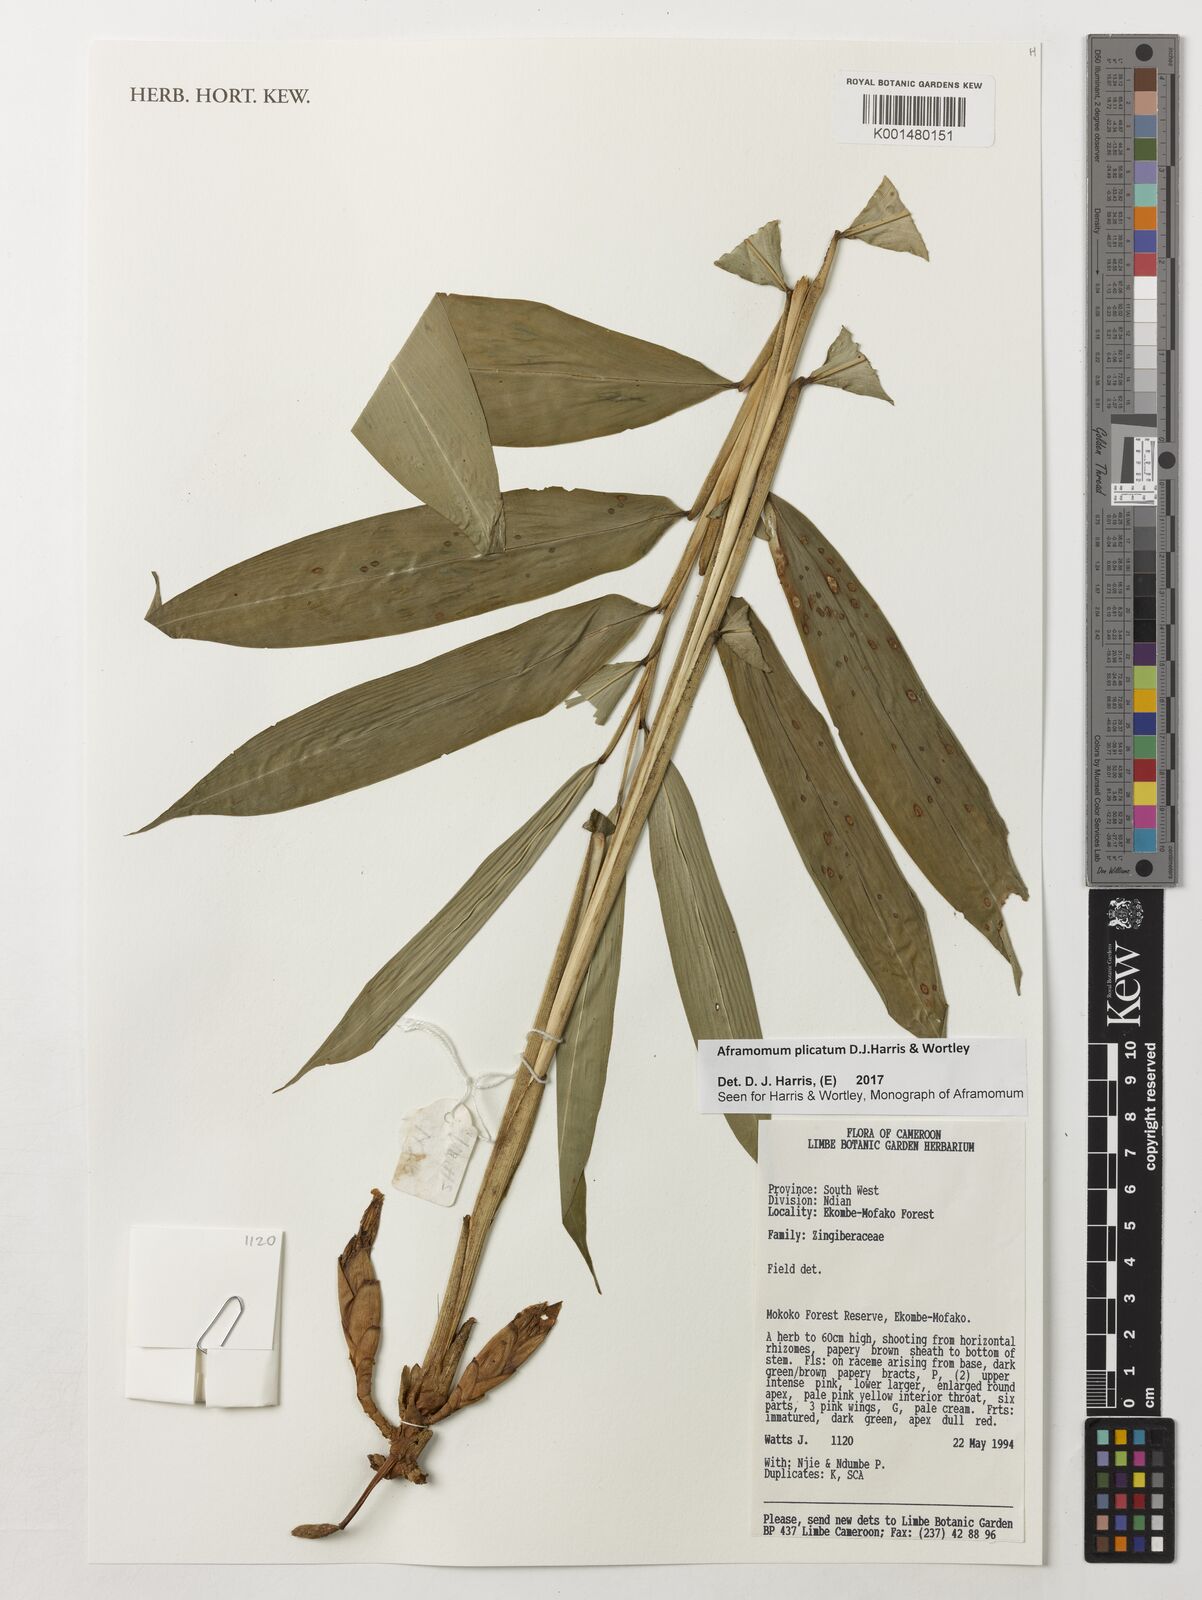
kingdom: Plantae
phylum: Tracheophyta
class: Liliopsida
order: Zingiberales
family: Zingiberaceae
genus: Aframomum
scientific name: Aframomum plicatum
